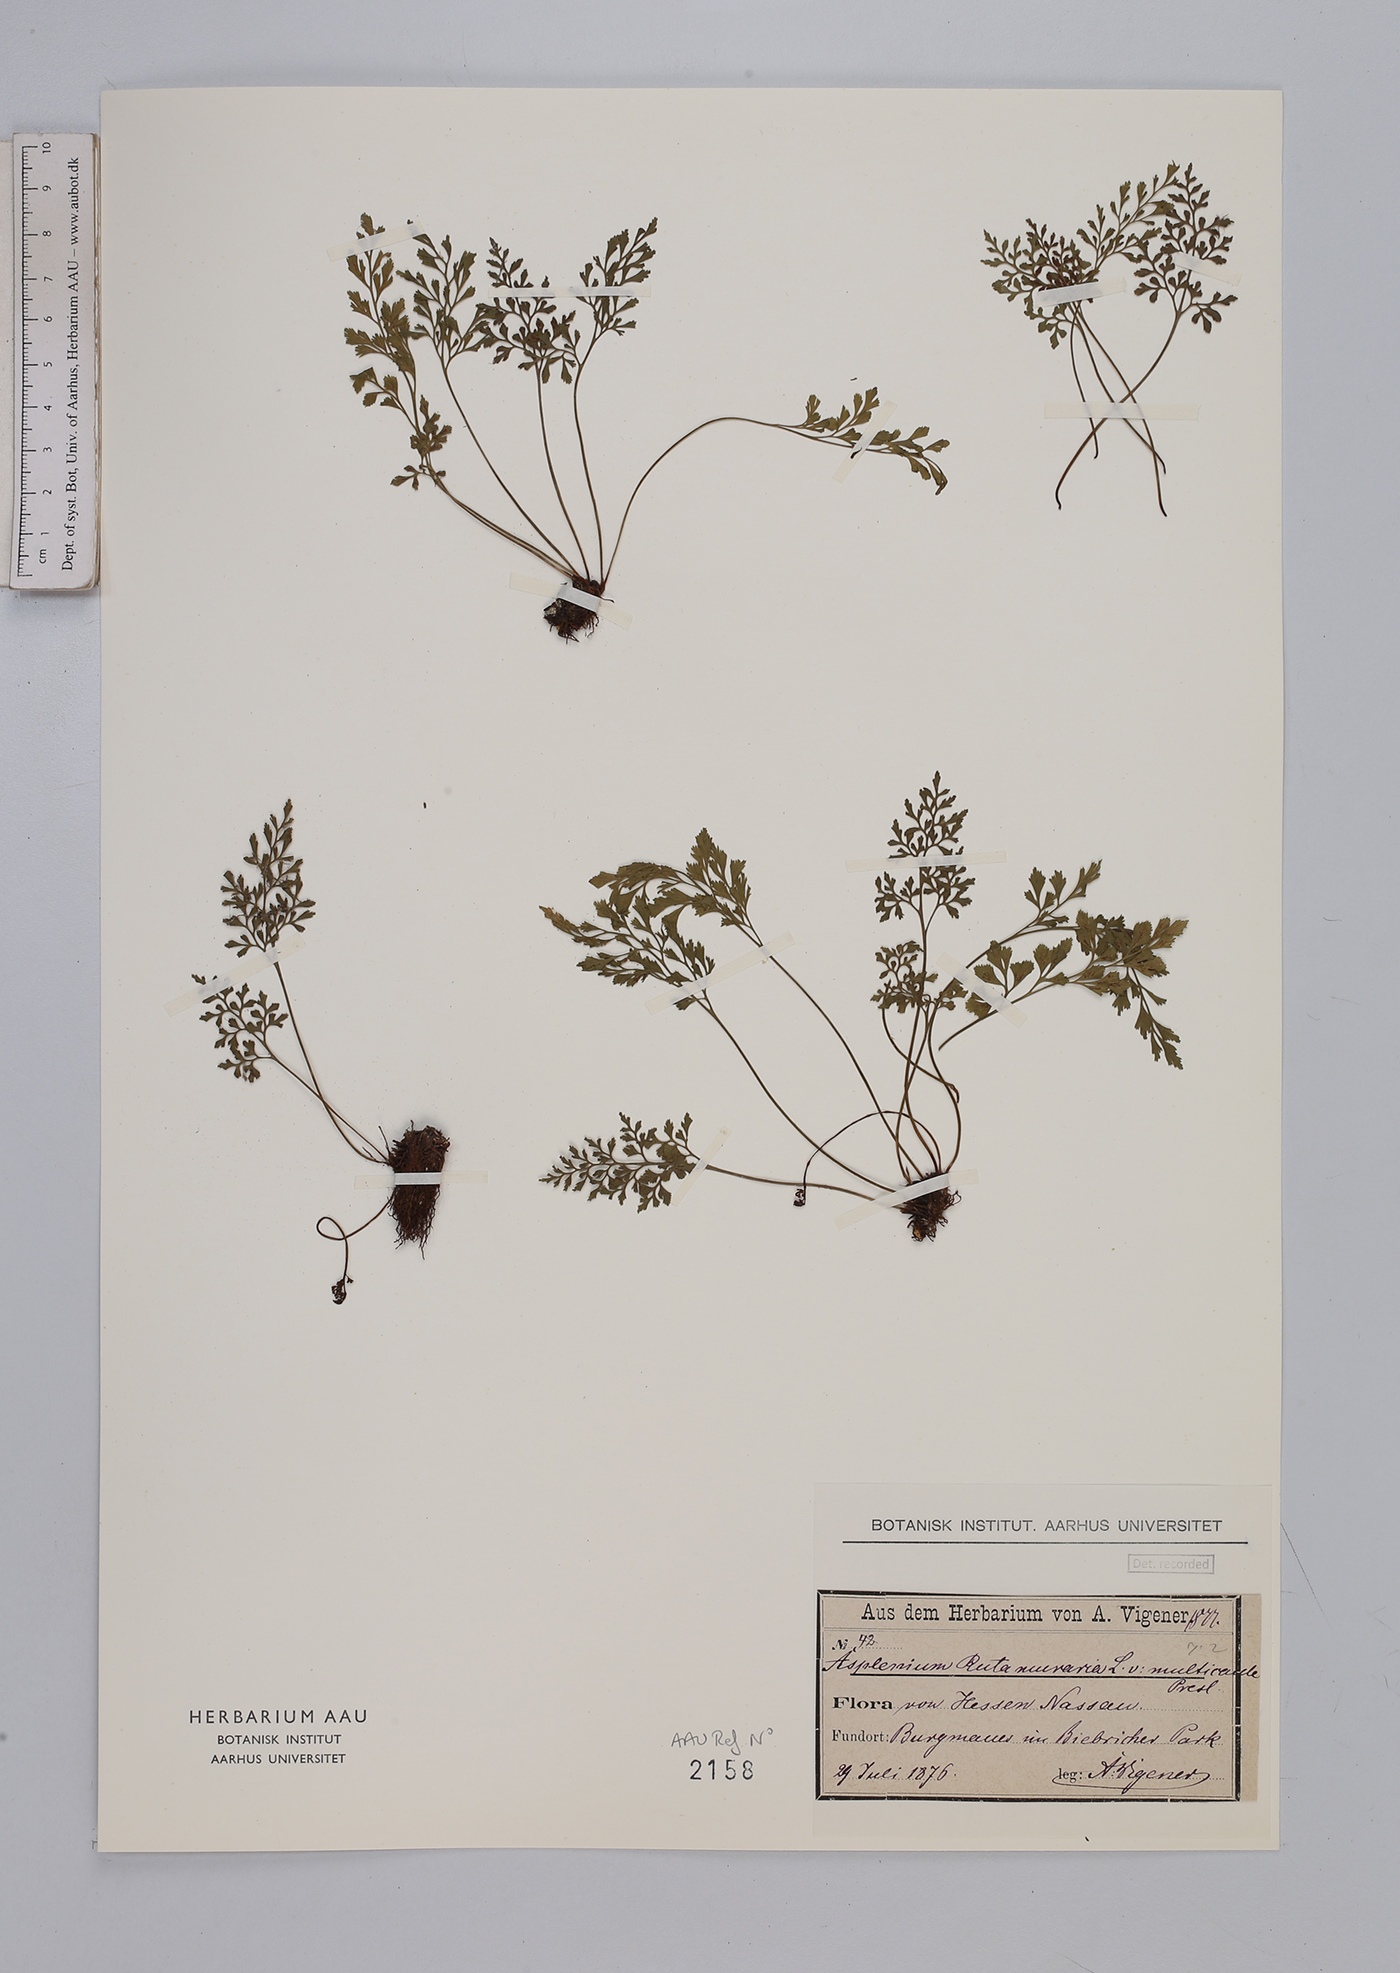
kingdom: Plantae
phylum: Tracheophyta
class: Polypodiopsida
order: Polypodiales
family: Aspleniaceae
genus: Asplenium
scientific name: Asplenium ruta-muraria
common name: Wall-rue
